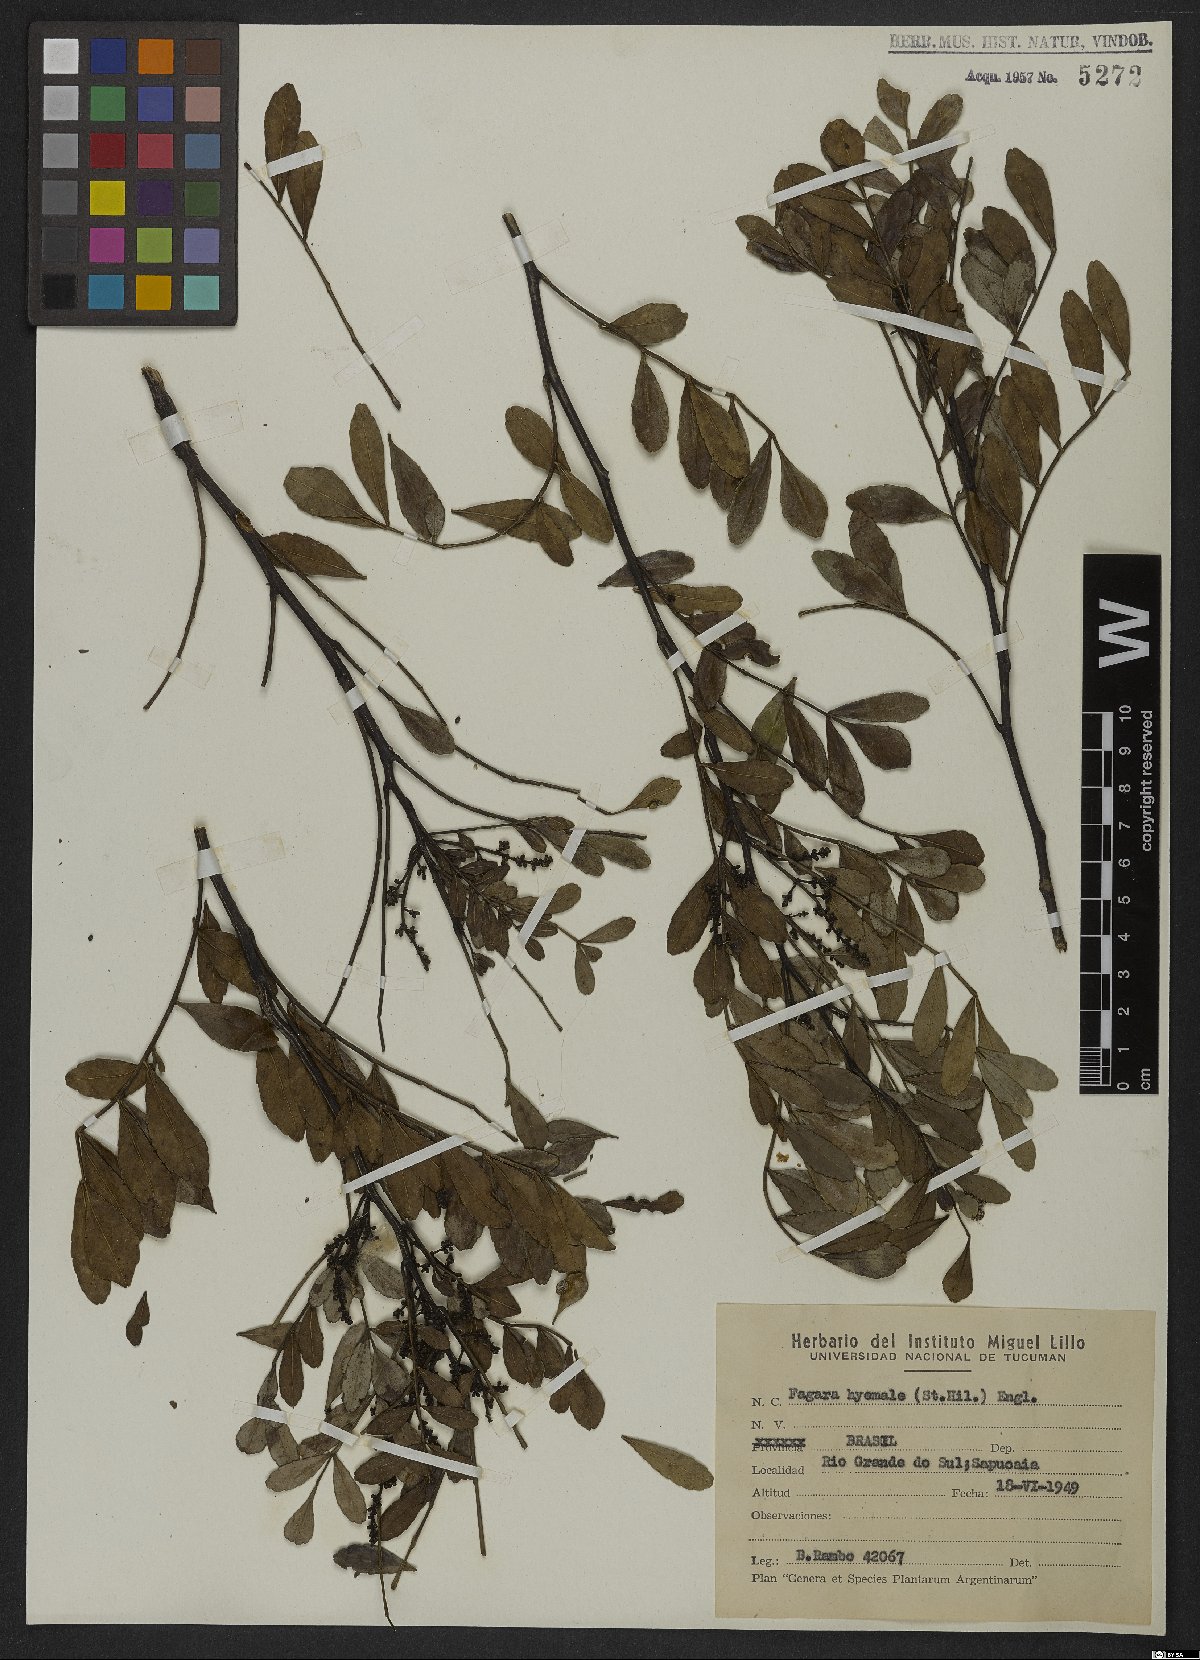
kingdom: Plantae
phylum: Tracheophyta
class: Magnoliopsida
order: Sapindales
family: Rutaceae
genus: Zanthoxylum
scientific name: Zanthoxylum fagara
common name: Lime prickly-ash
